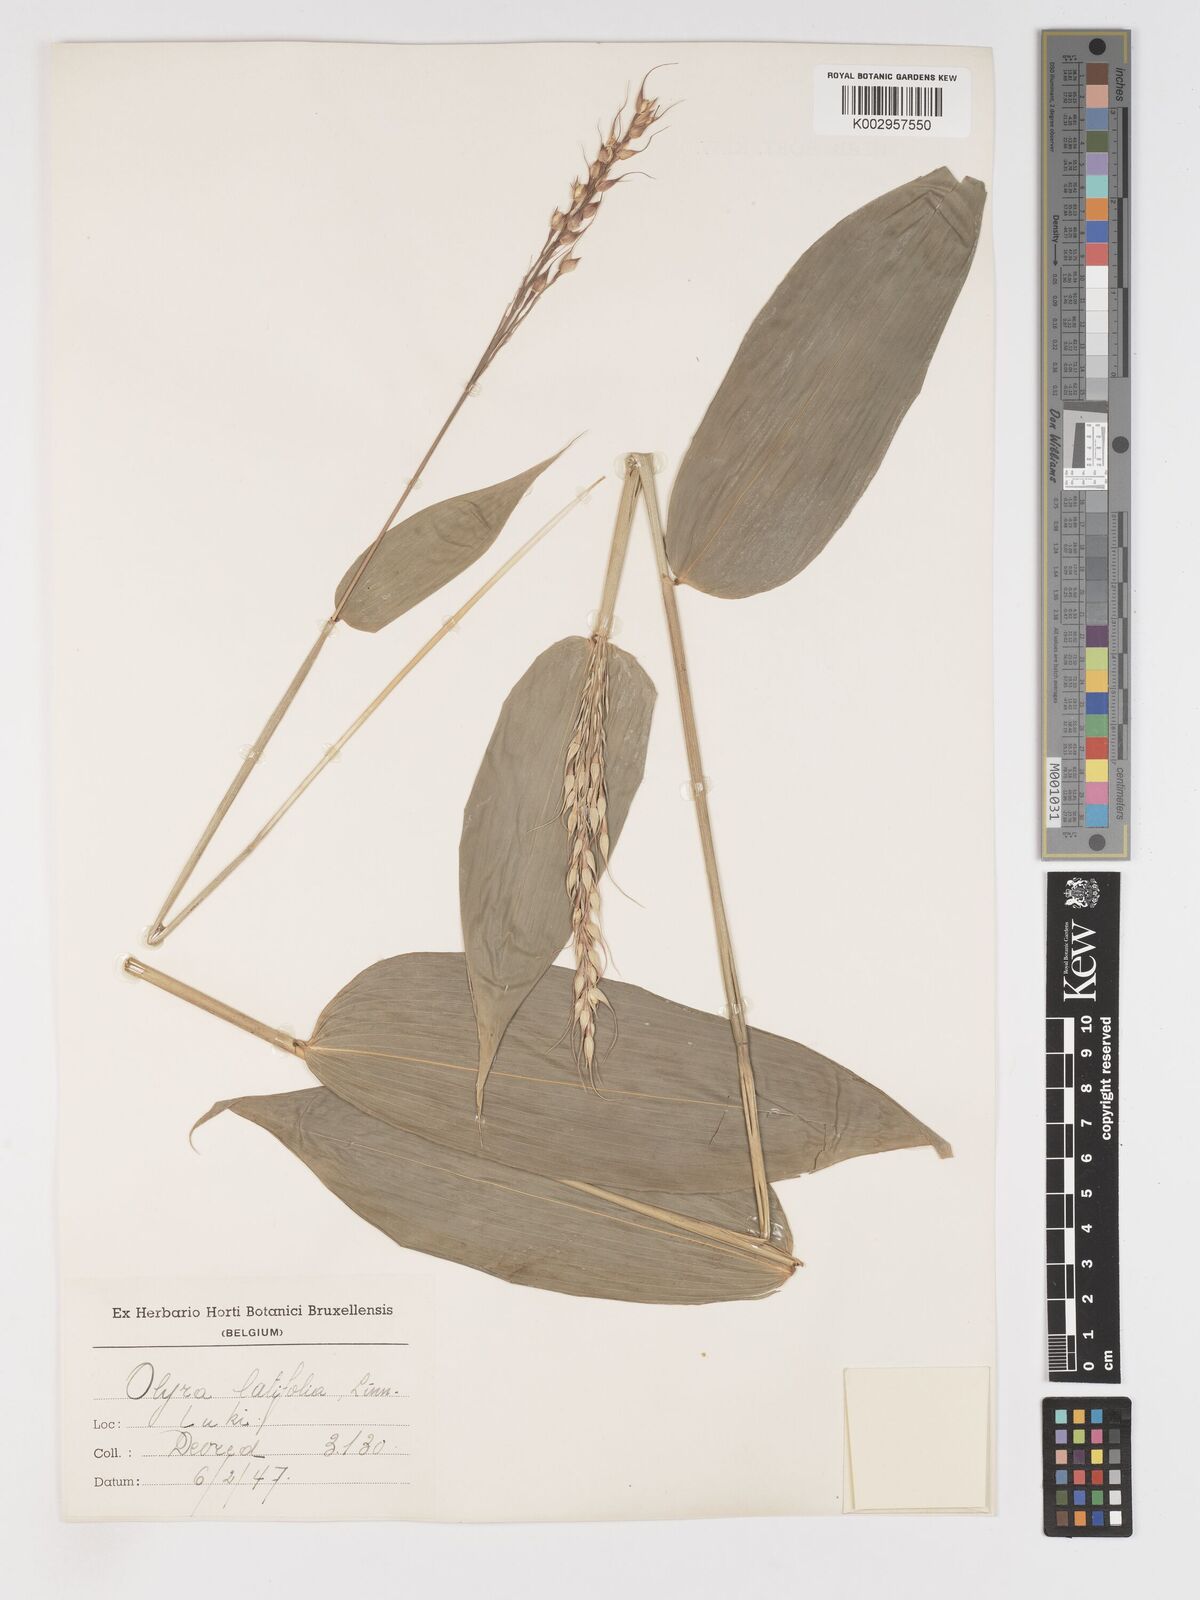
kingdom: Plantae
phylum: Tracheophyta
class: Liliopsida
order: Poales
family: Poaceae
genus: Olyra
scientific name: Olyra latifolia
